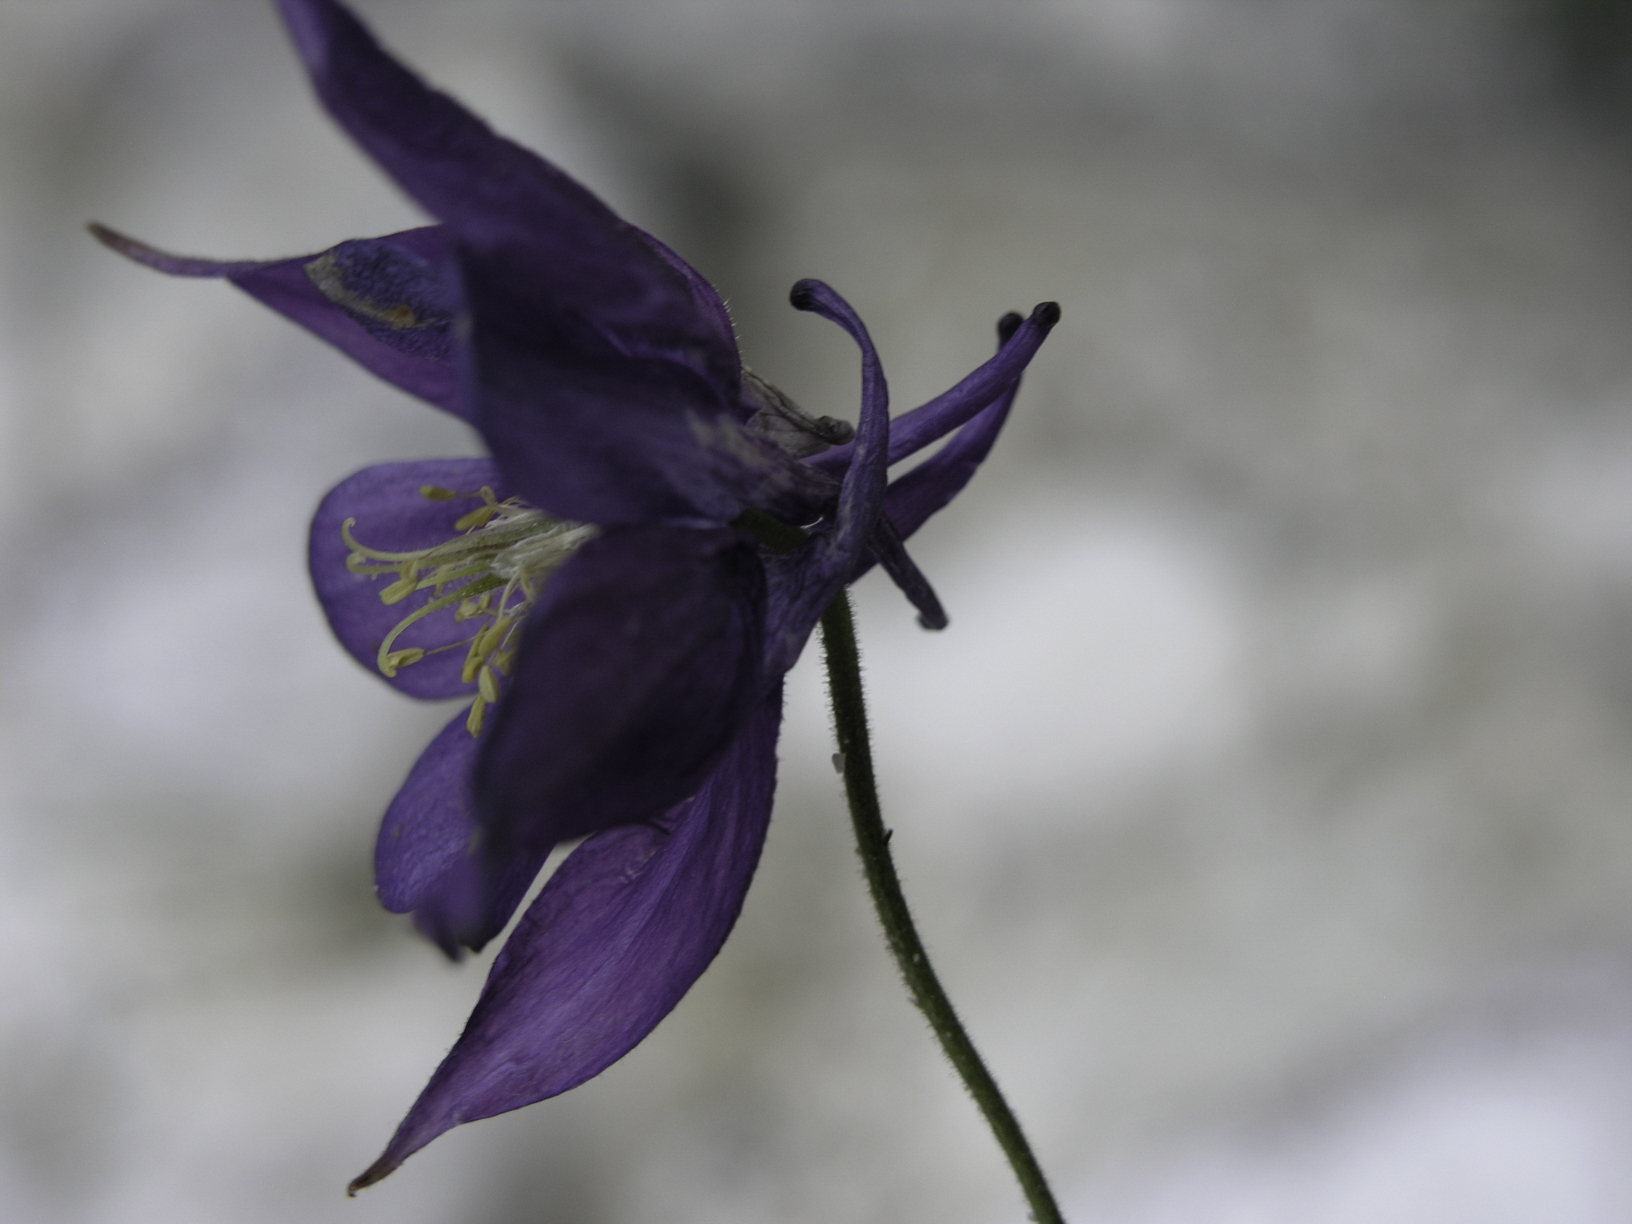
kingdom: Plantae
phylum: Tracheophyta
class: Magnoliopsida
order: Ranunculales
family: Ranunculaceae
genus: Aquilegia
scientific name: Aquilegia einseleana
